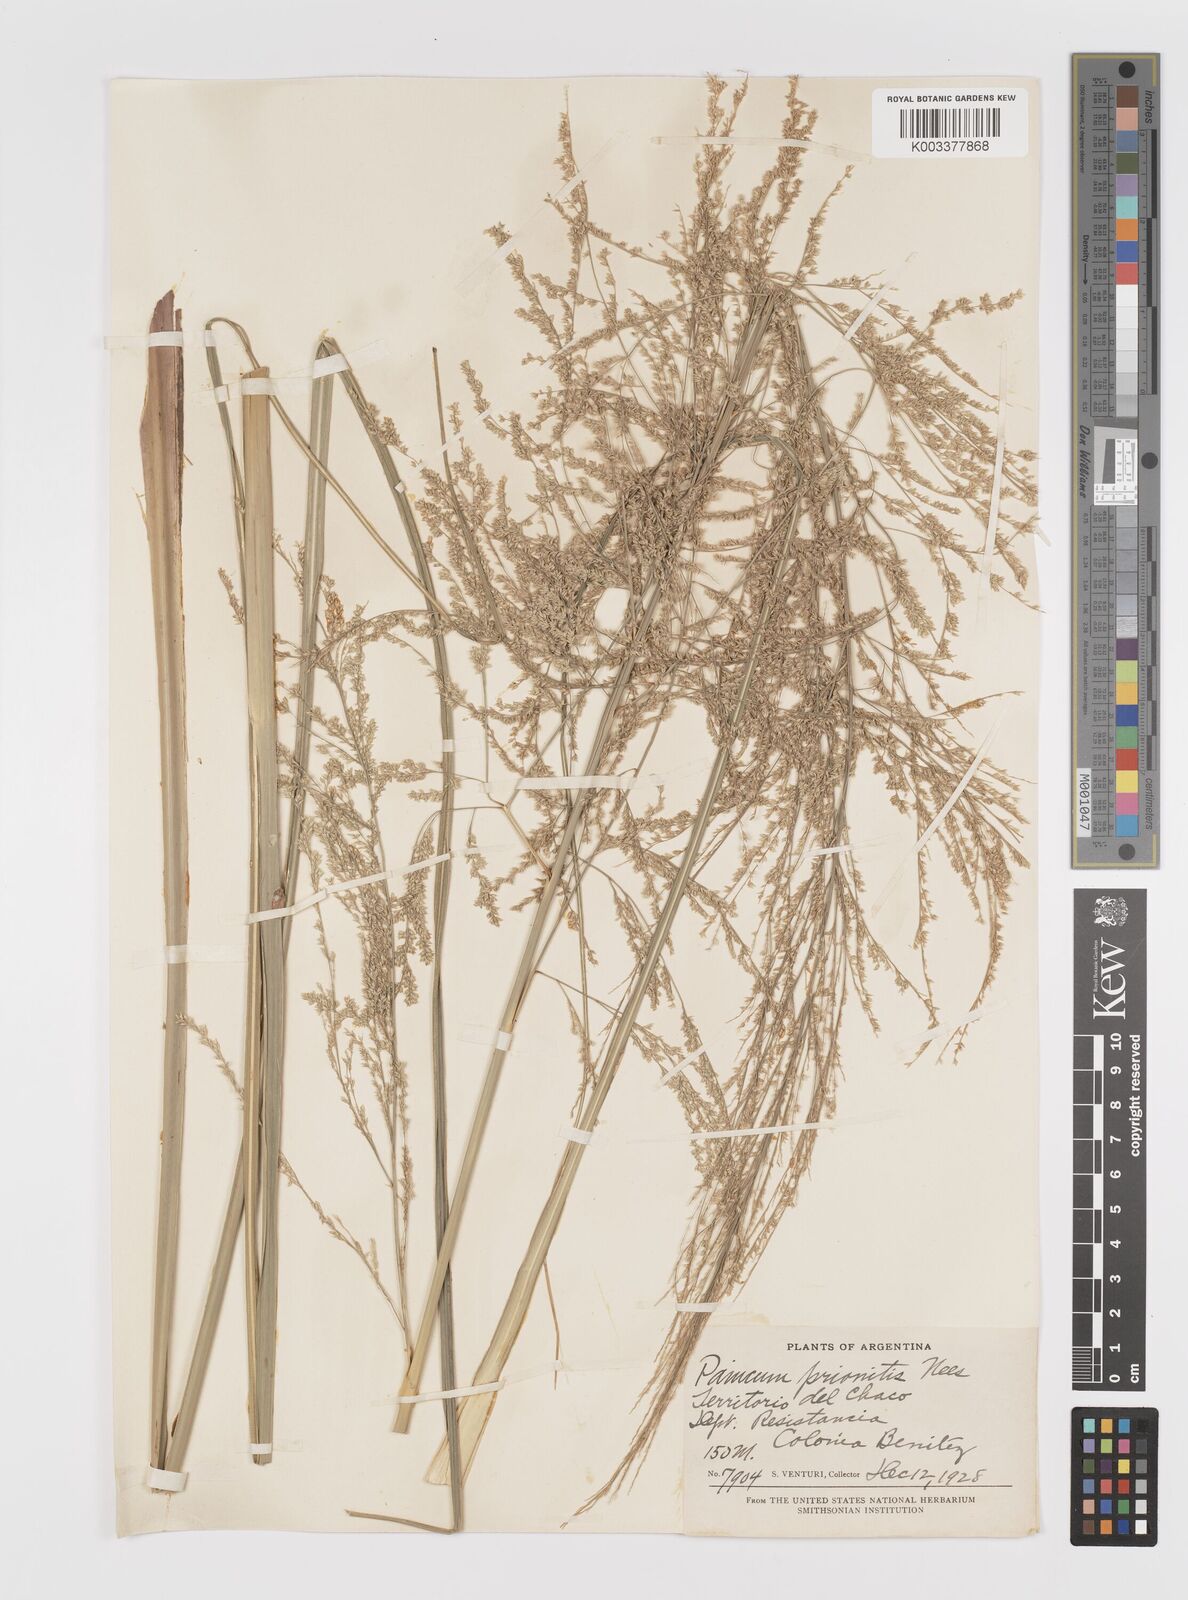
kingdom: Plantae
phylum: Tracheophyta
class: Liliopsida
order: Poales
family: Poaceae
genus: Coleataenia
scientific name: Coleataenia prionitis
